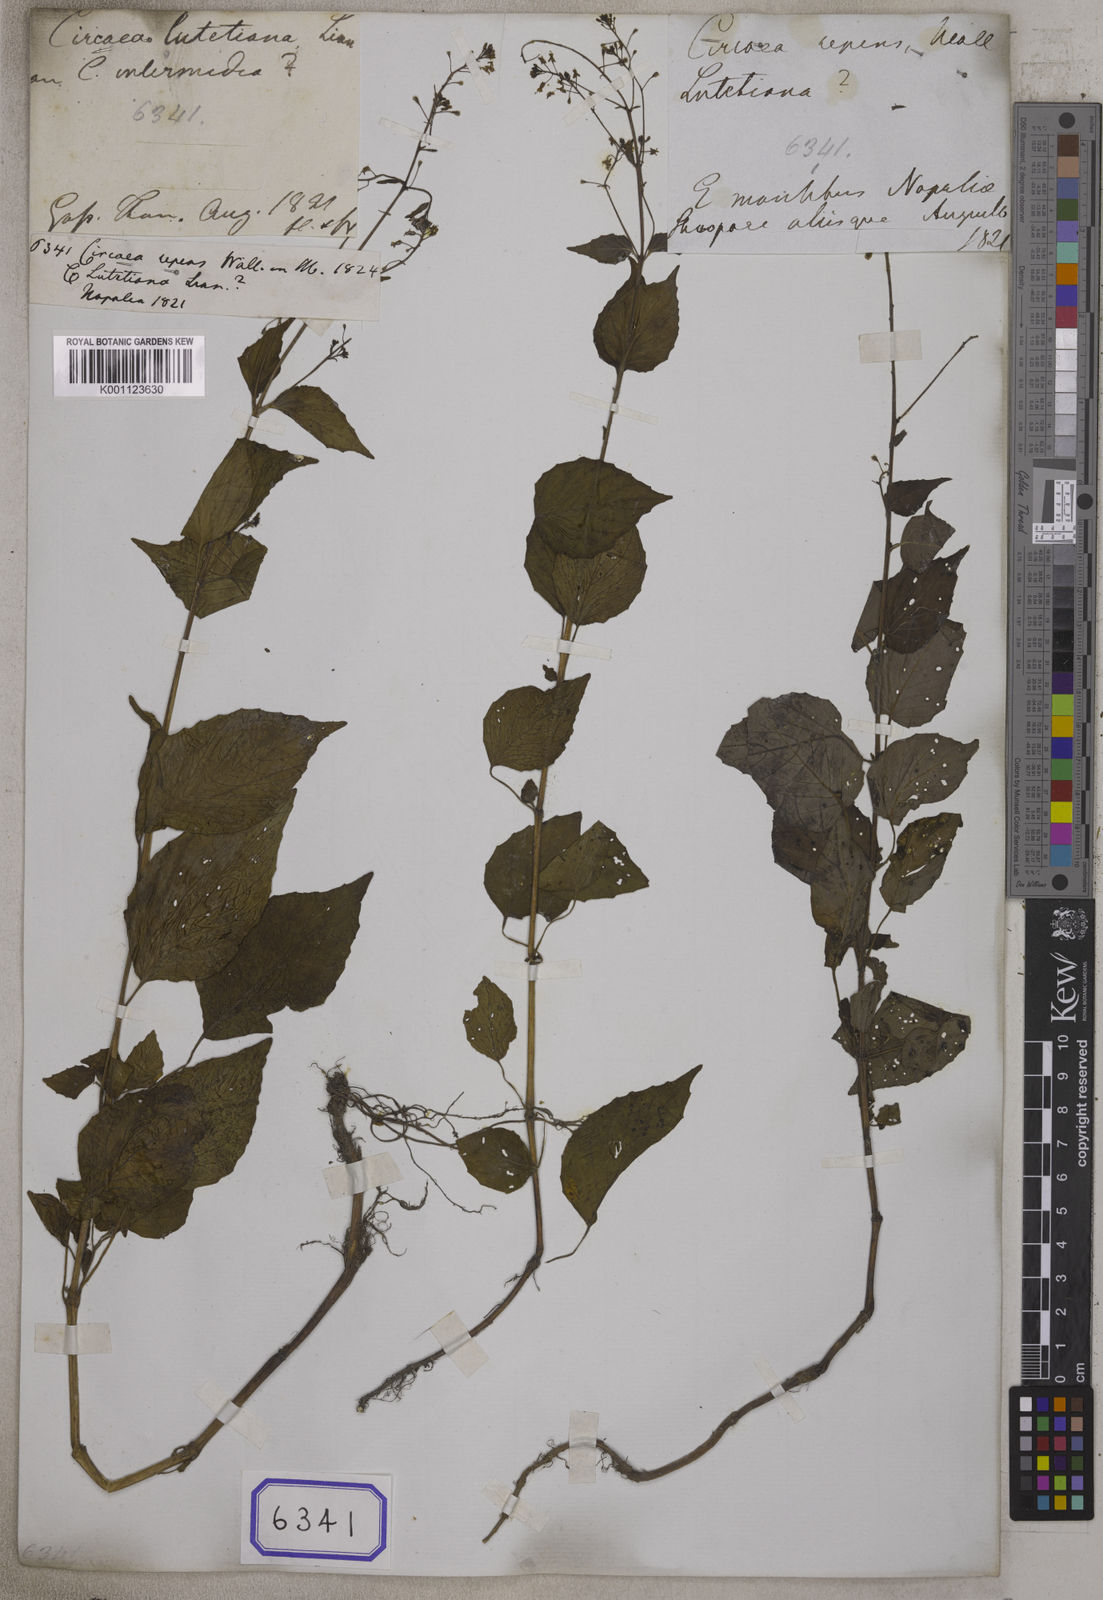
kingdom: Plantae
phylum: Tracheophyta
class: Magnoliopsida
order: Myrtales
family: Onagraceae
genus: Circaea
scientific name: Circaea
